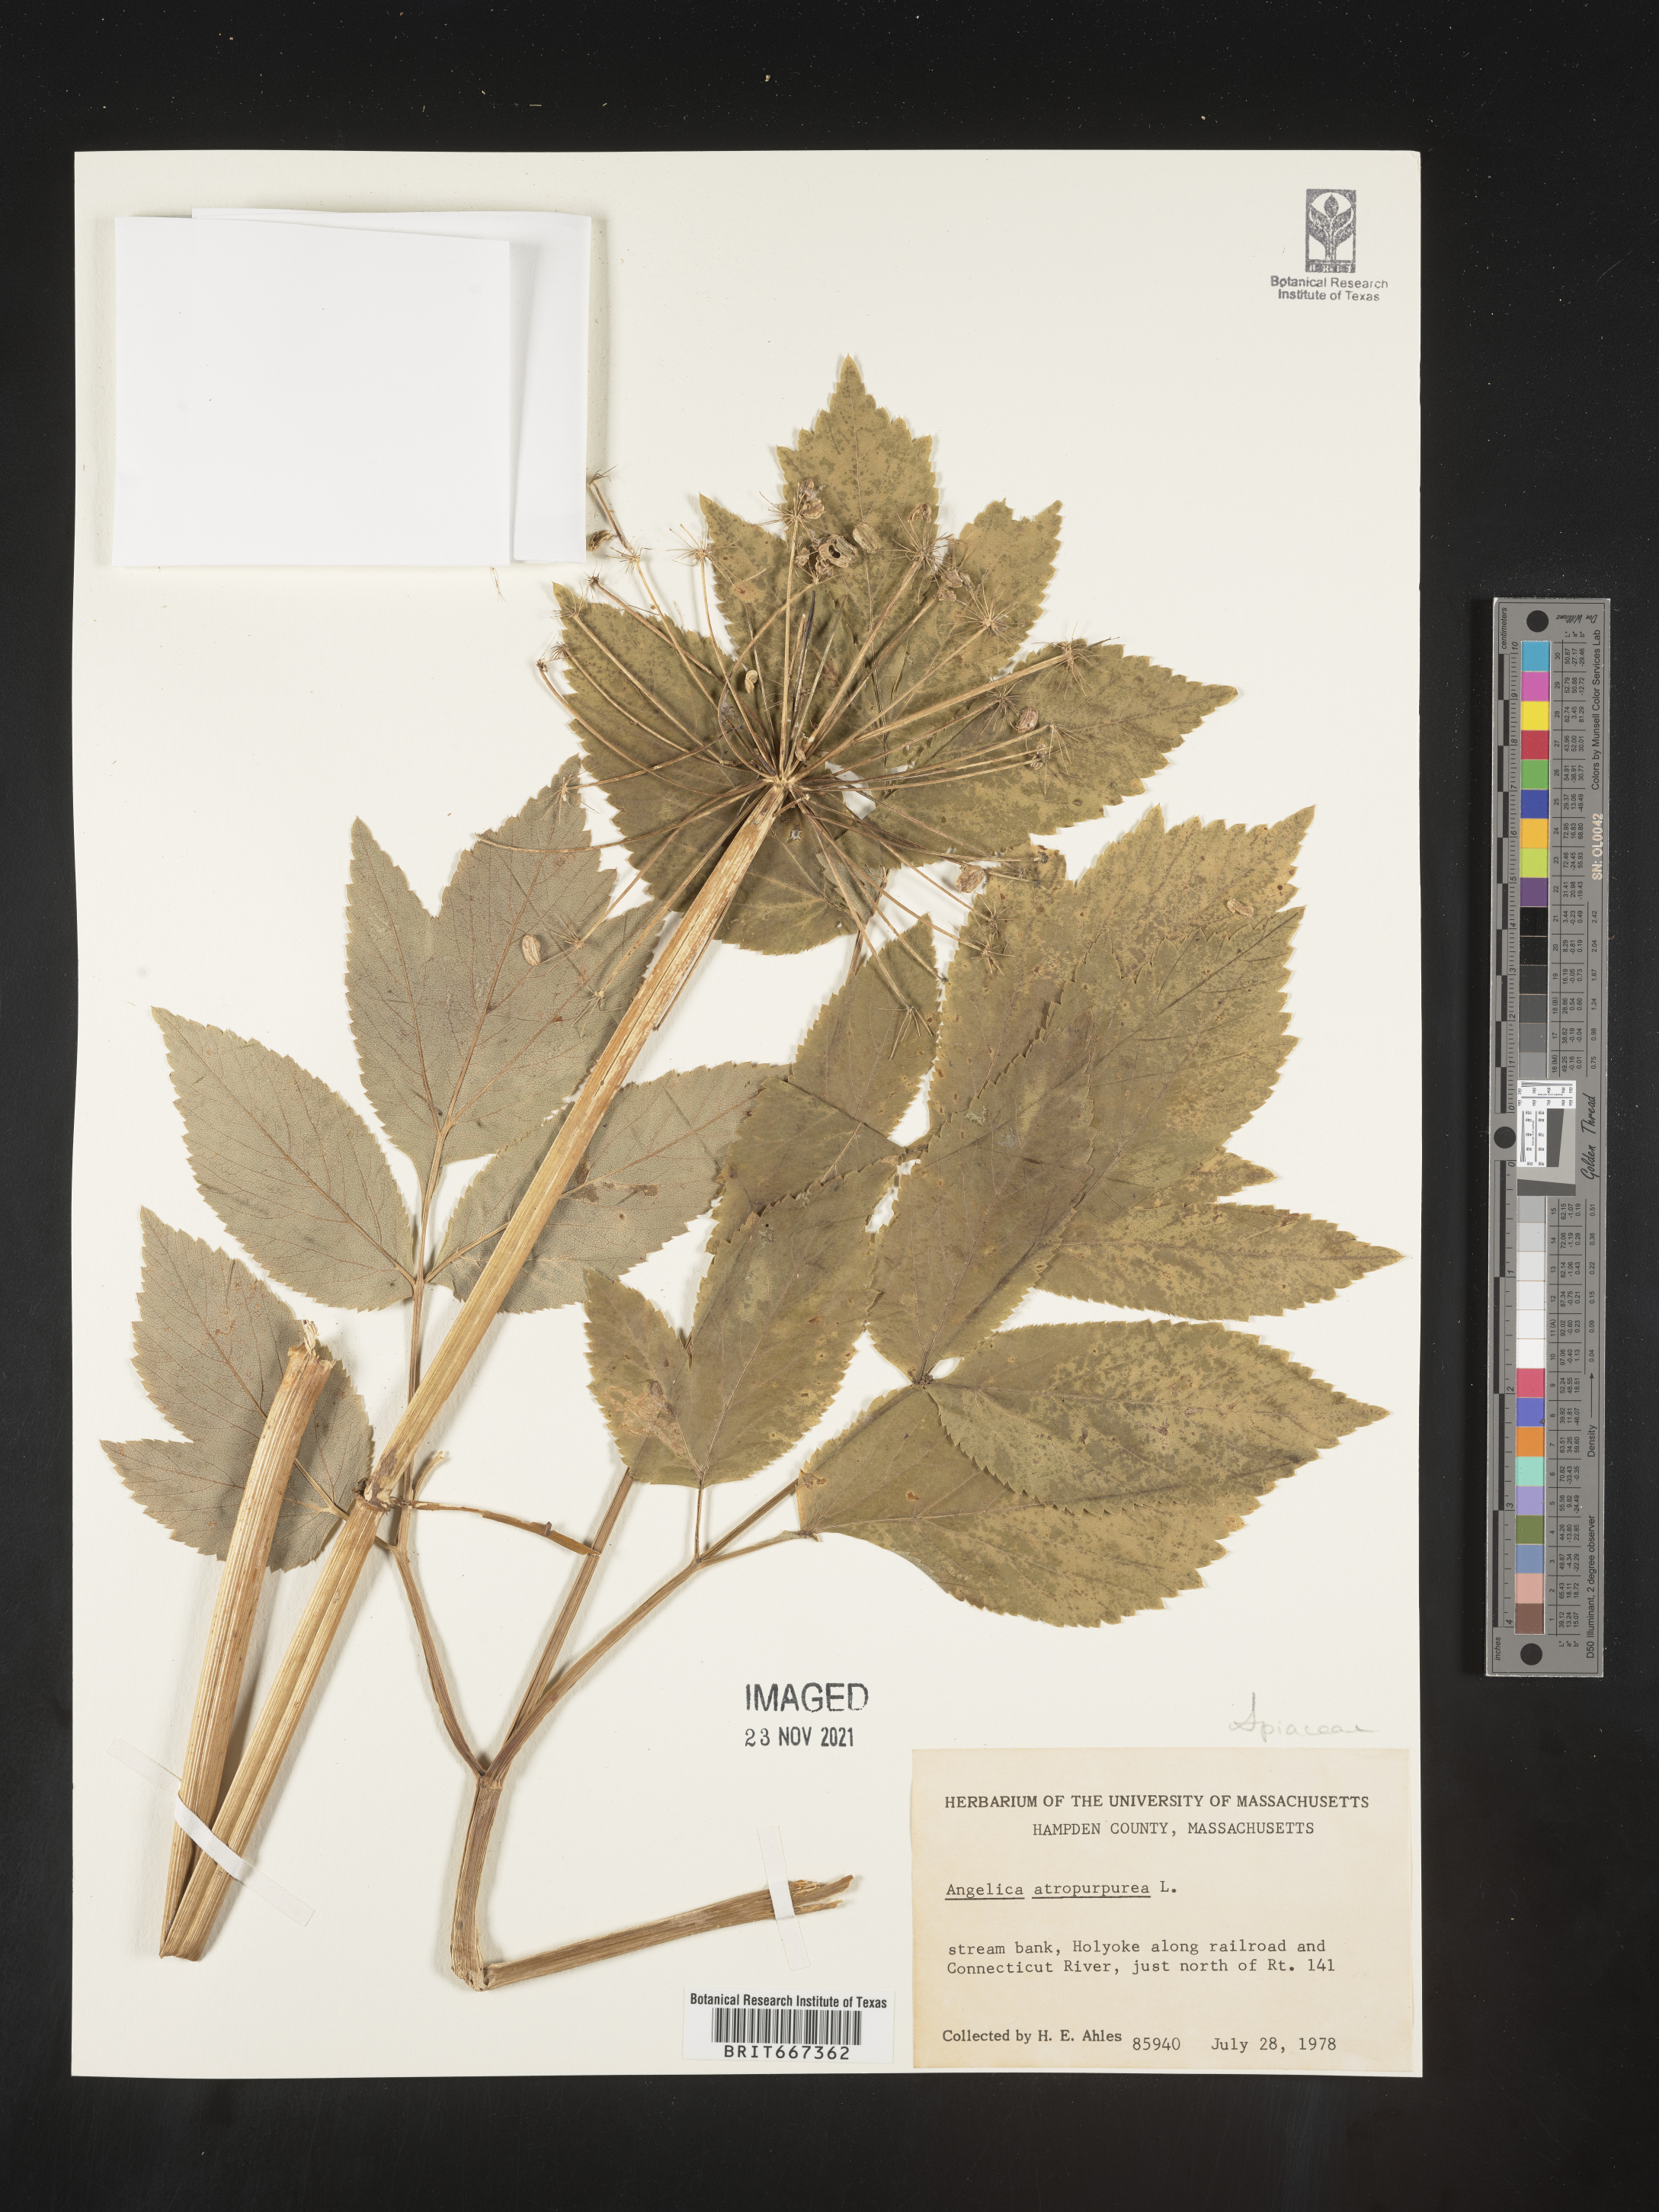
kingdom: Plantae
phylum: Tracheophyta
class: Magnoliopsida
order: Apiales
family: Apiaceae
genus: Angelica
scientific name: Angelica atropurpurea
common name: Great angelica
